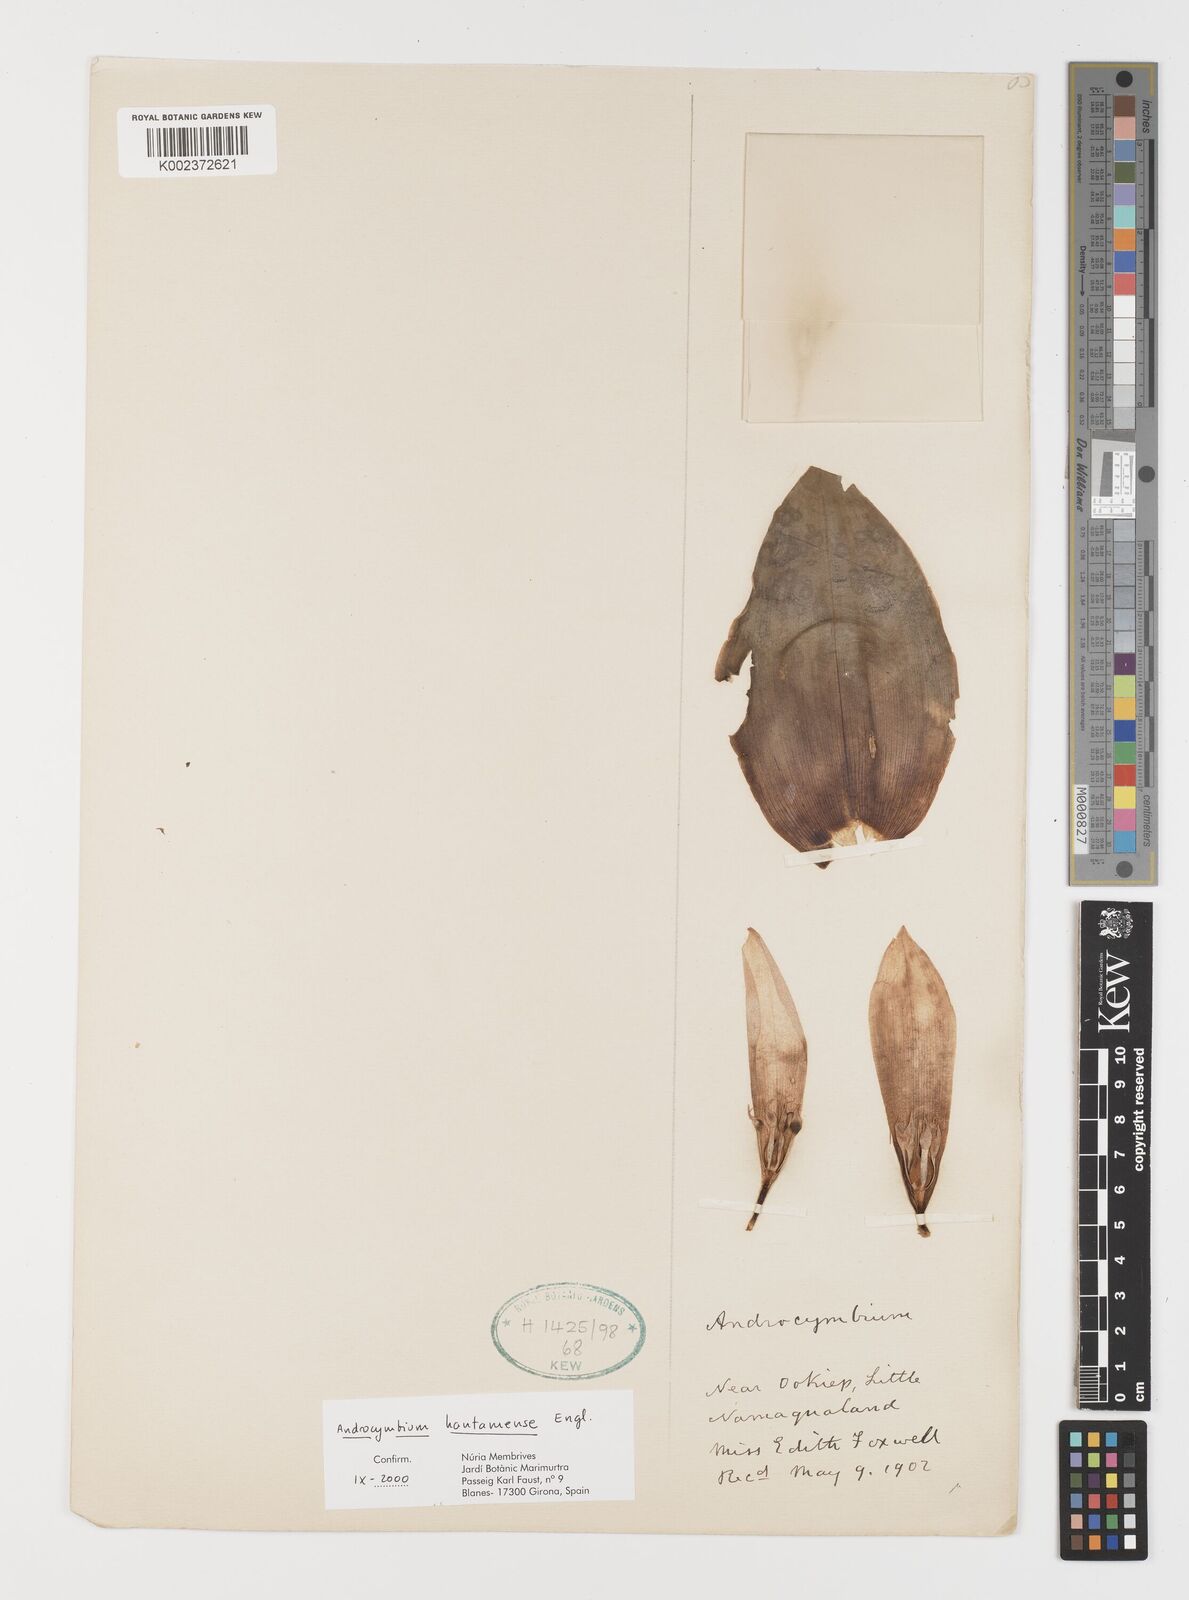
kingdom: Plantae
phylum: Tracheophyta
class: Liliopsida
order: Liliales
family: Colchicaceae
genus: Colchicum
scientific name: Colchicum hantamense
